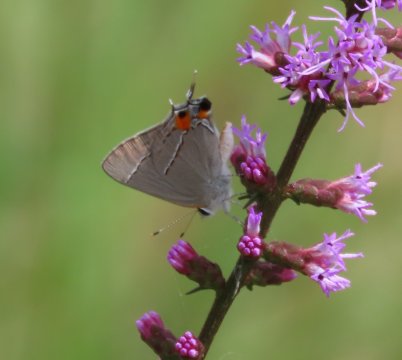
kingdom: Animalia
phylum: Arthropoda
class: Insecta
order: Lepidoptera
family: Lycaenidae
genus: Strymon
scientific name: Strymon melinus
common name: Gray Hairstreak
